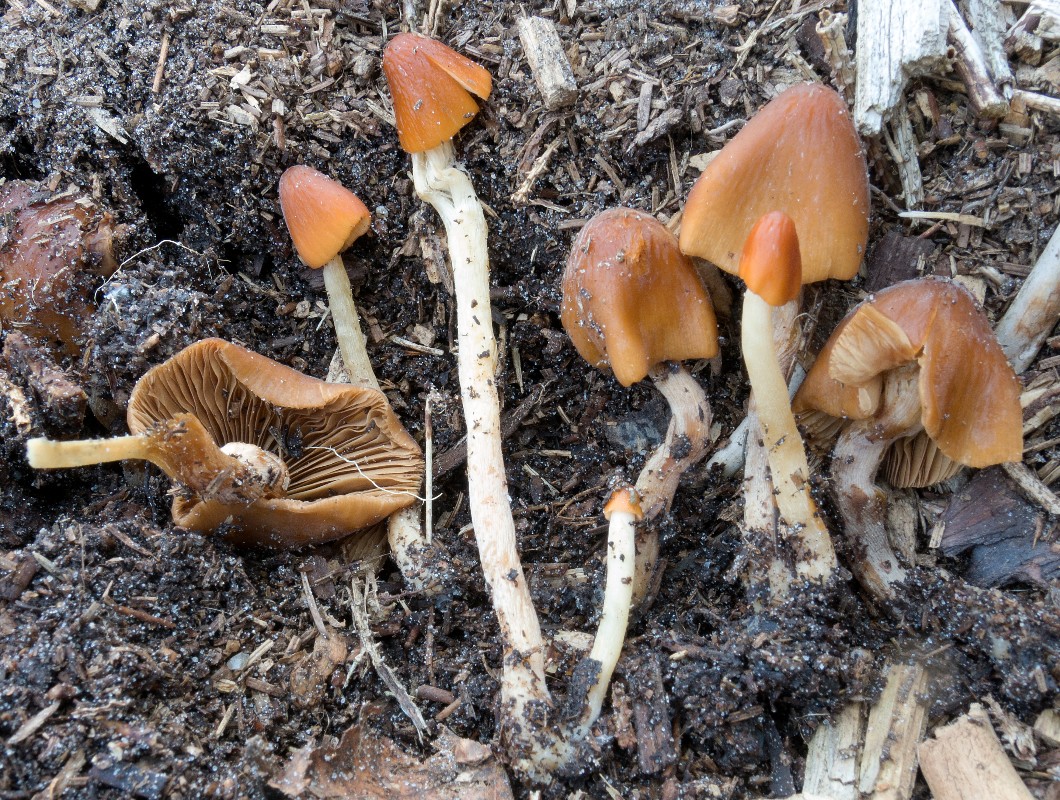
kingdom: Fungi
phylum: Basidiomycota
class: Agaricomycetes
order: Agaricales
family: Bolbitiaceae
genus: Conocybe
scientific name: Conocybe subpubescens
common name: krat-keglehat
